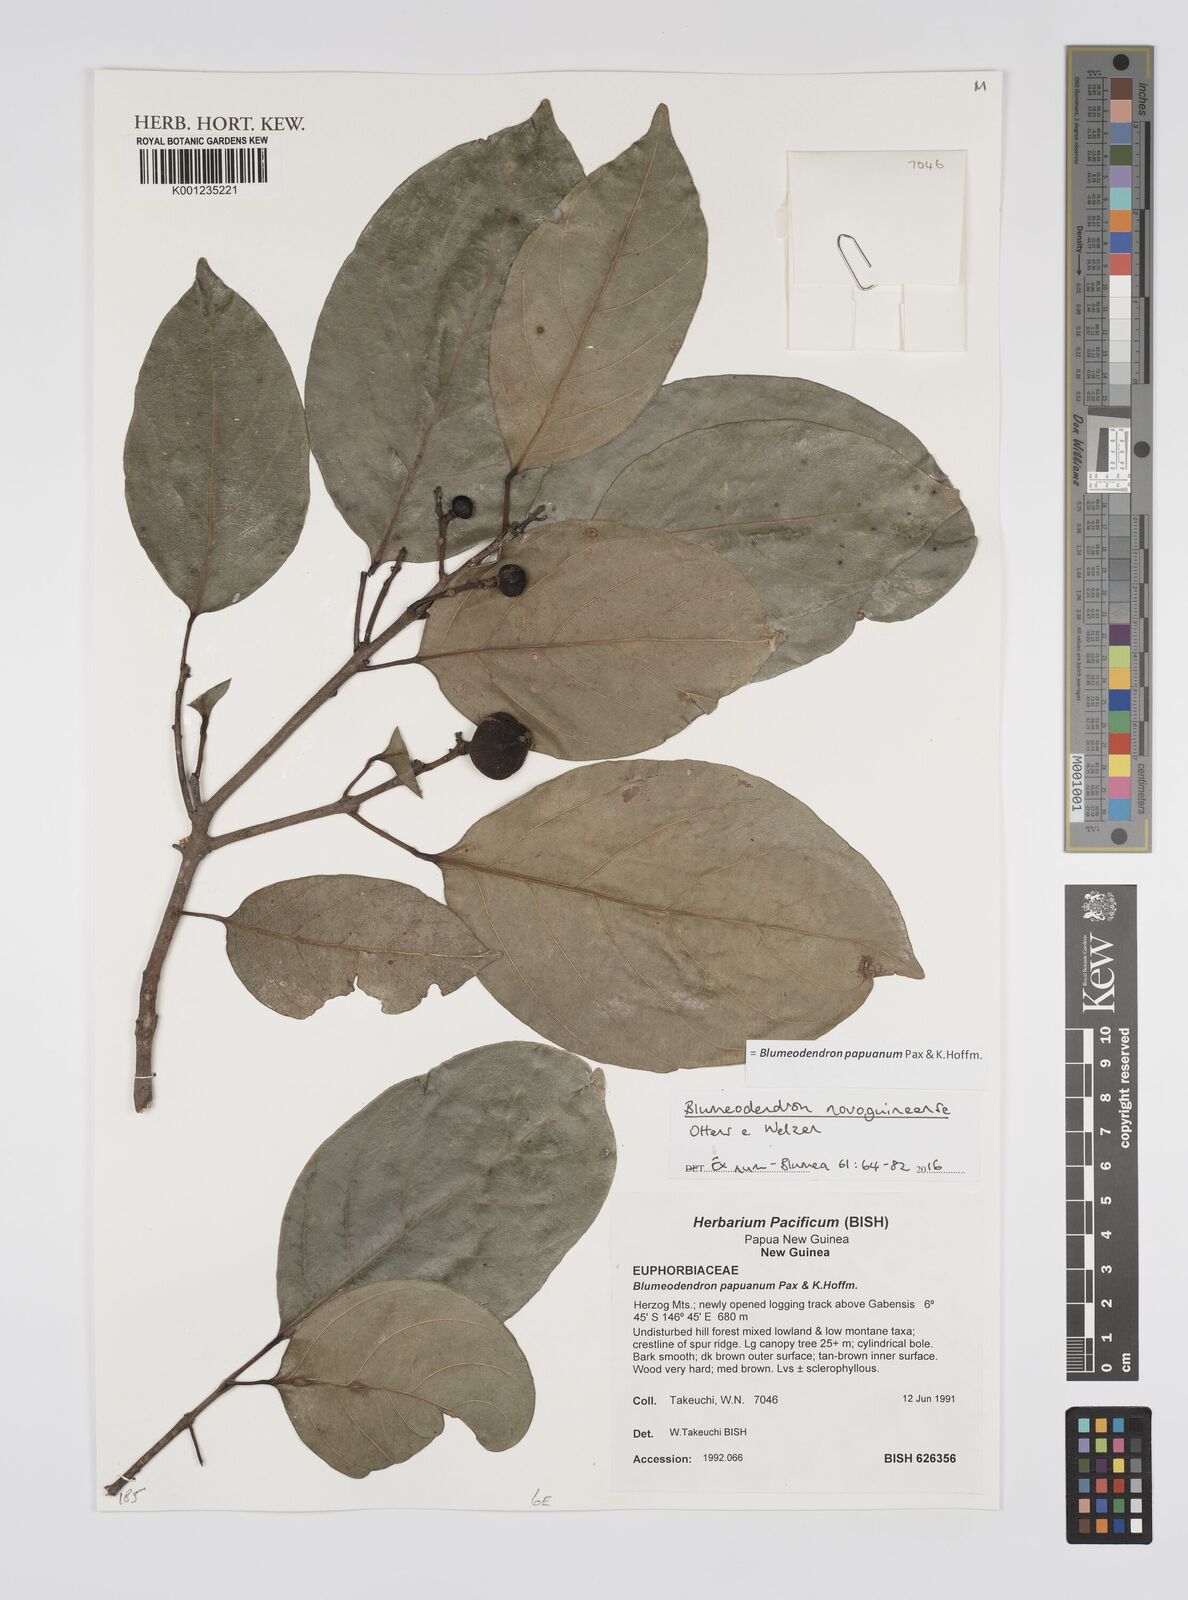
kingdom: Plantae
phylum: Tracheophyta
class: Magnoliopsida
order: Malpighiales
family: Euphorbiaceae
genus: Blumeodendron
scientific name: Blumeodendron papuanum
